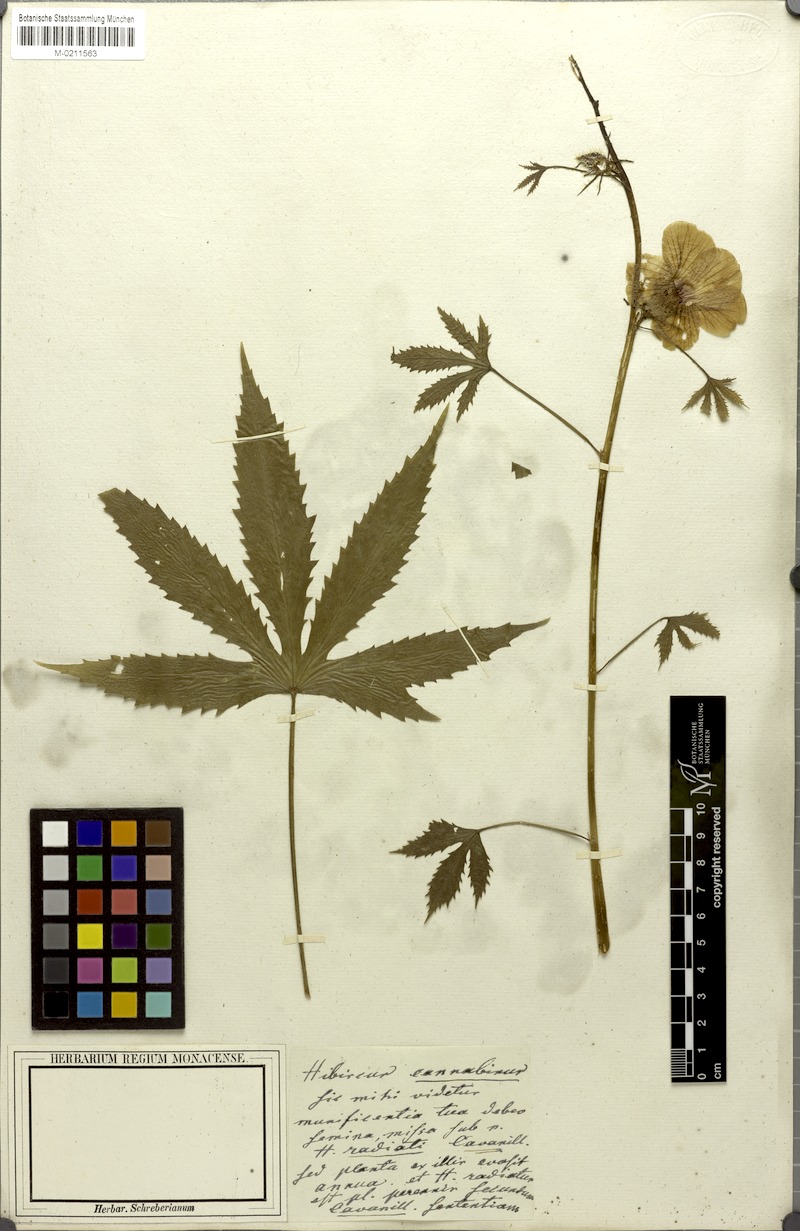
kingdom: Plantae
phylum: Tracheophyta
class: Magnoliopsida
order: Malvales
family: Malvaceae
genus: Hibiscus
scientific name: Hibiscus cannabinus
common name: Brown indianhemp
